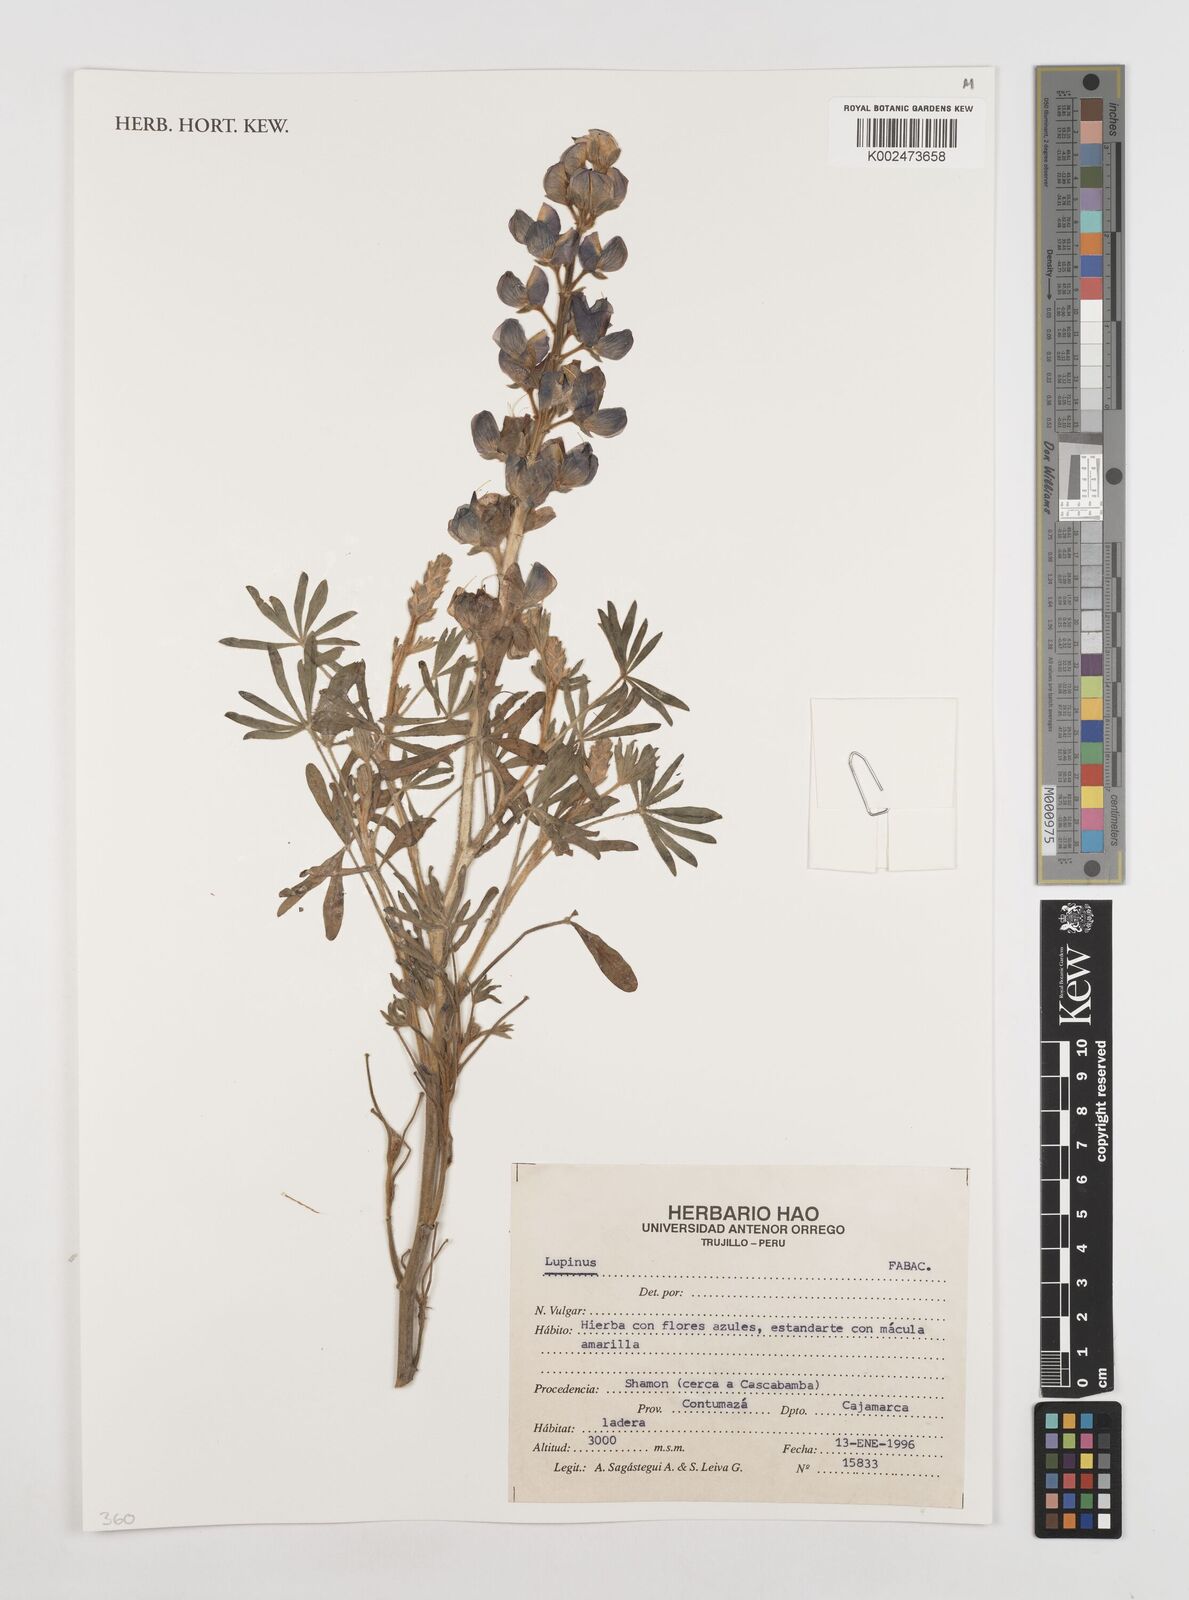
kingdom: Plantae
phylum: Tracheophyta
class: Magnoliopsida
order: Fabales
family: Fabaceae
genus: Lupinus
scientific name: Lupinus
